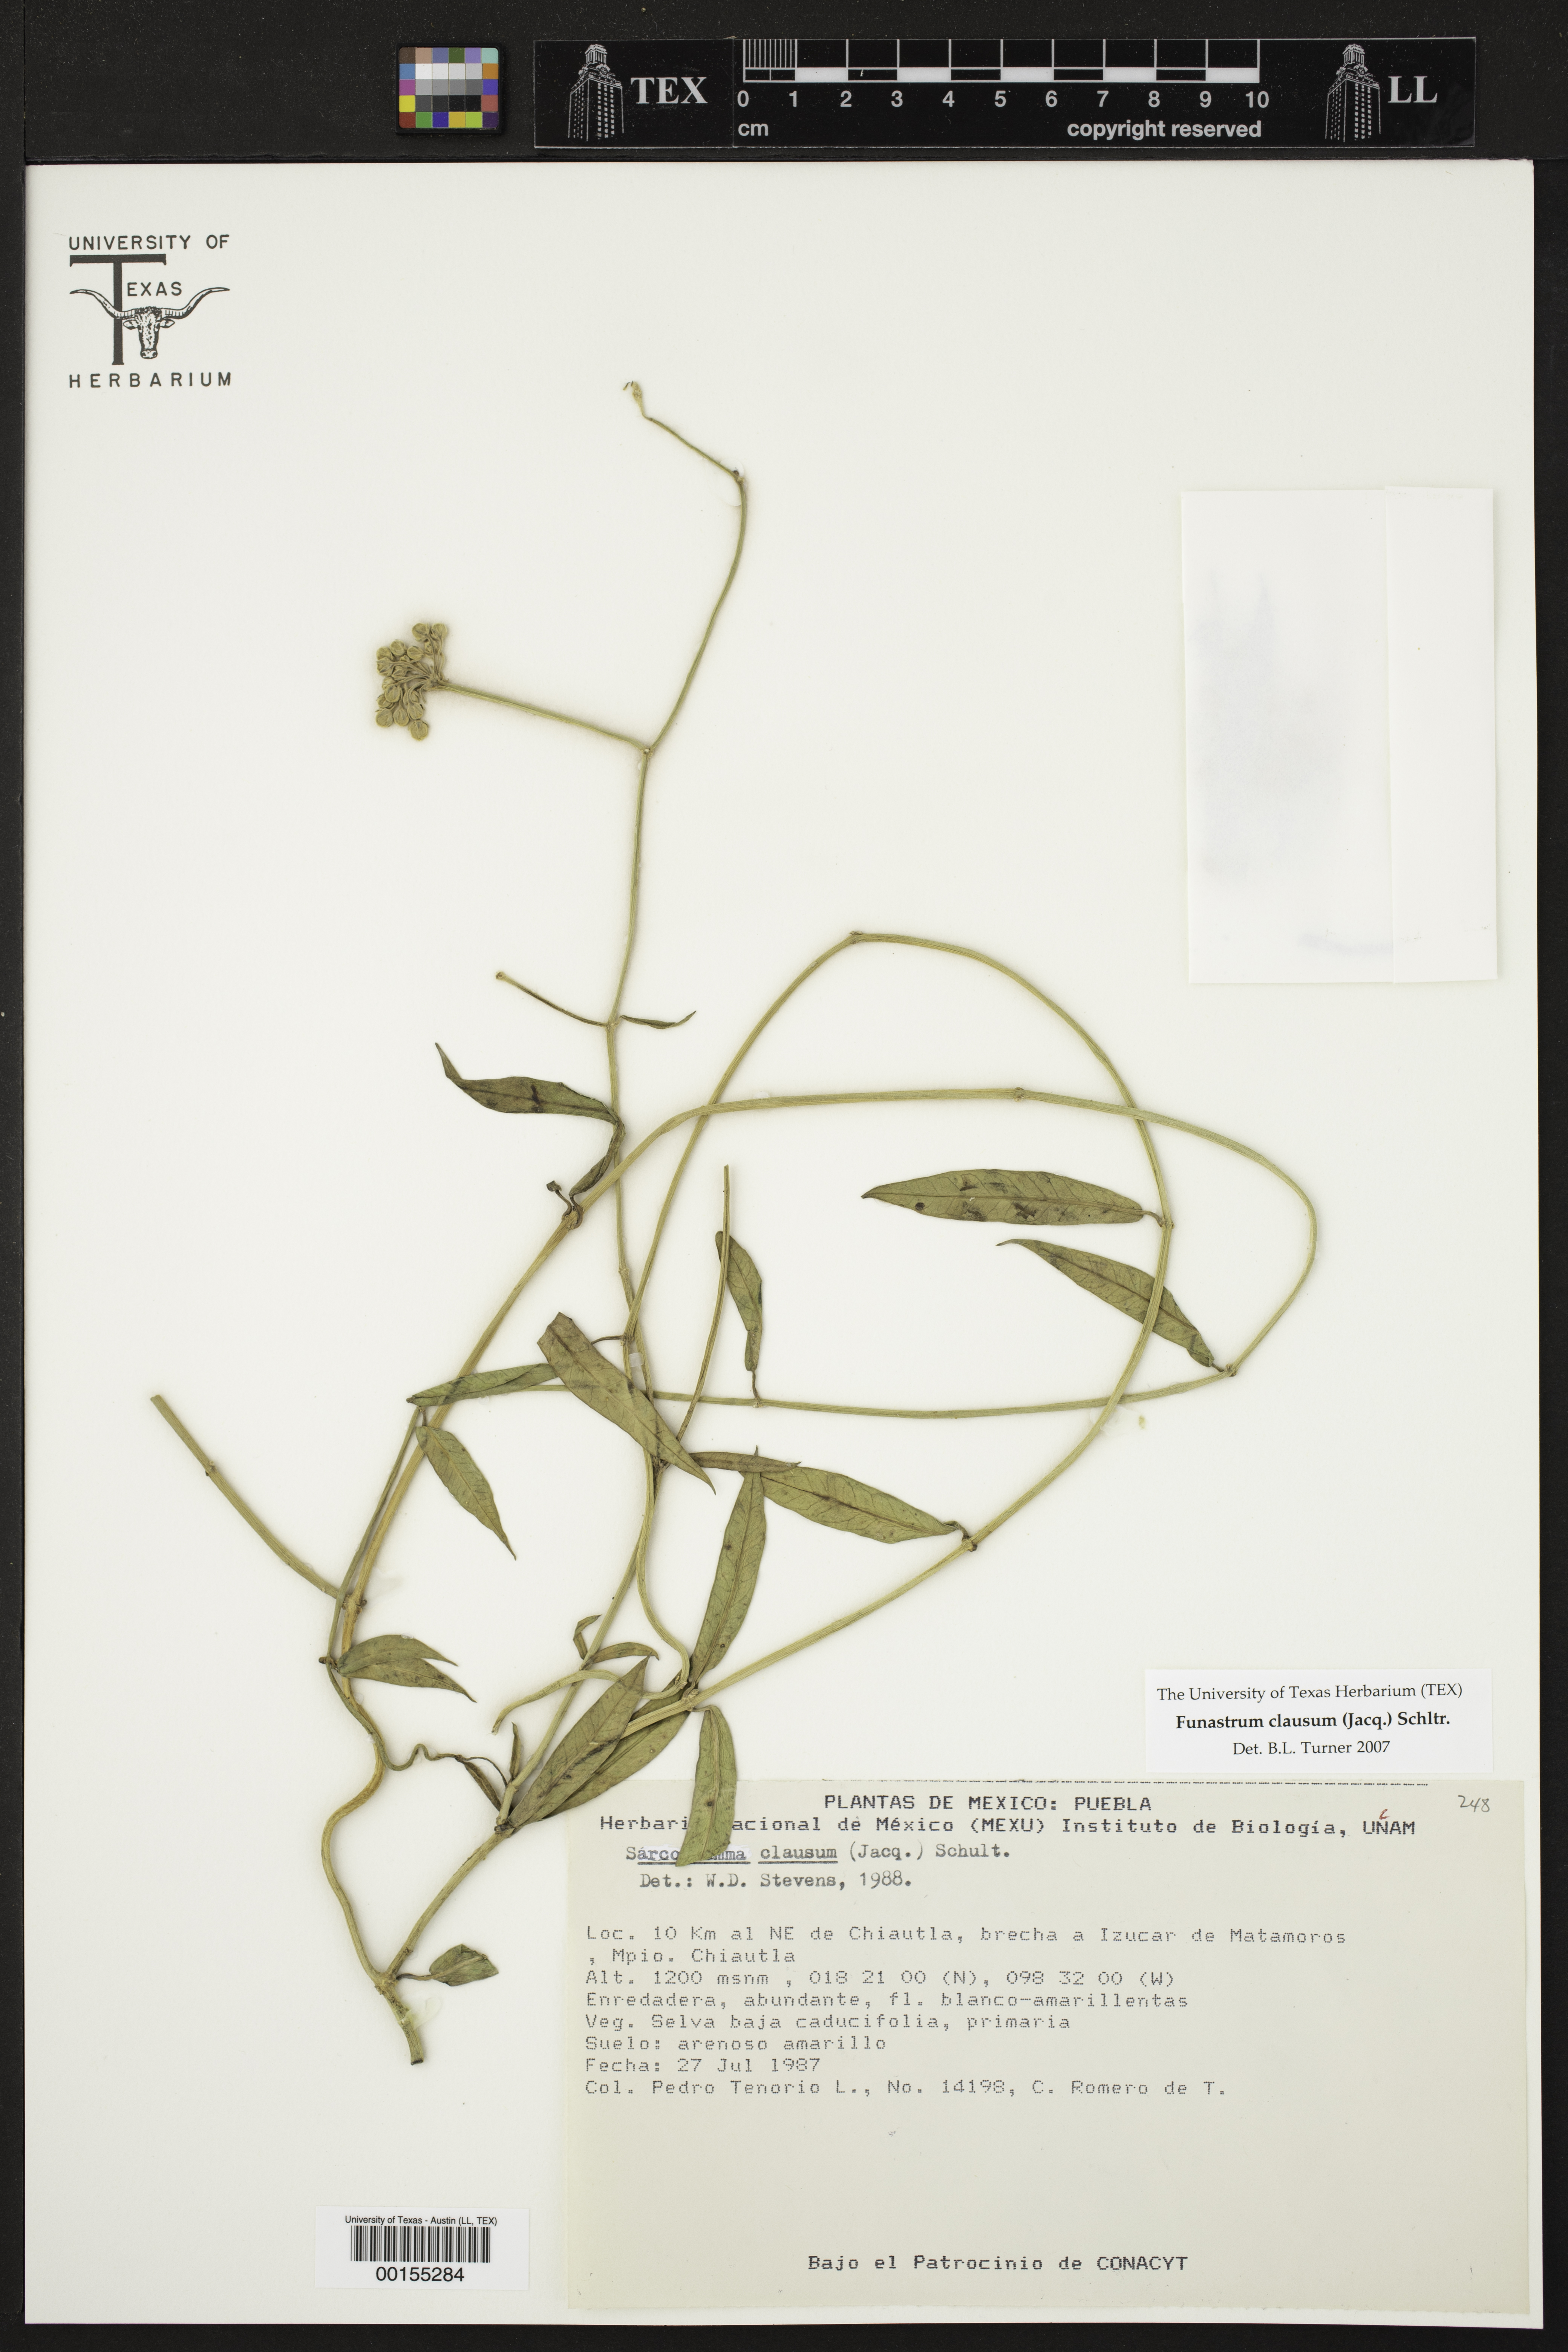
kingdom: Plantae
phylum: Tracheophyta
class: Magnoliopsida
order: Gentianales
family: Apocynaceae
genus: Funastrum
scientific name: Funastrum clausum
